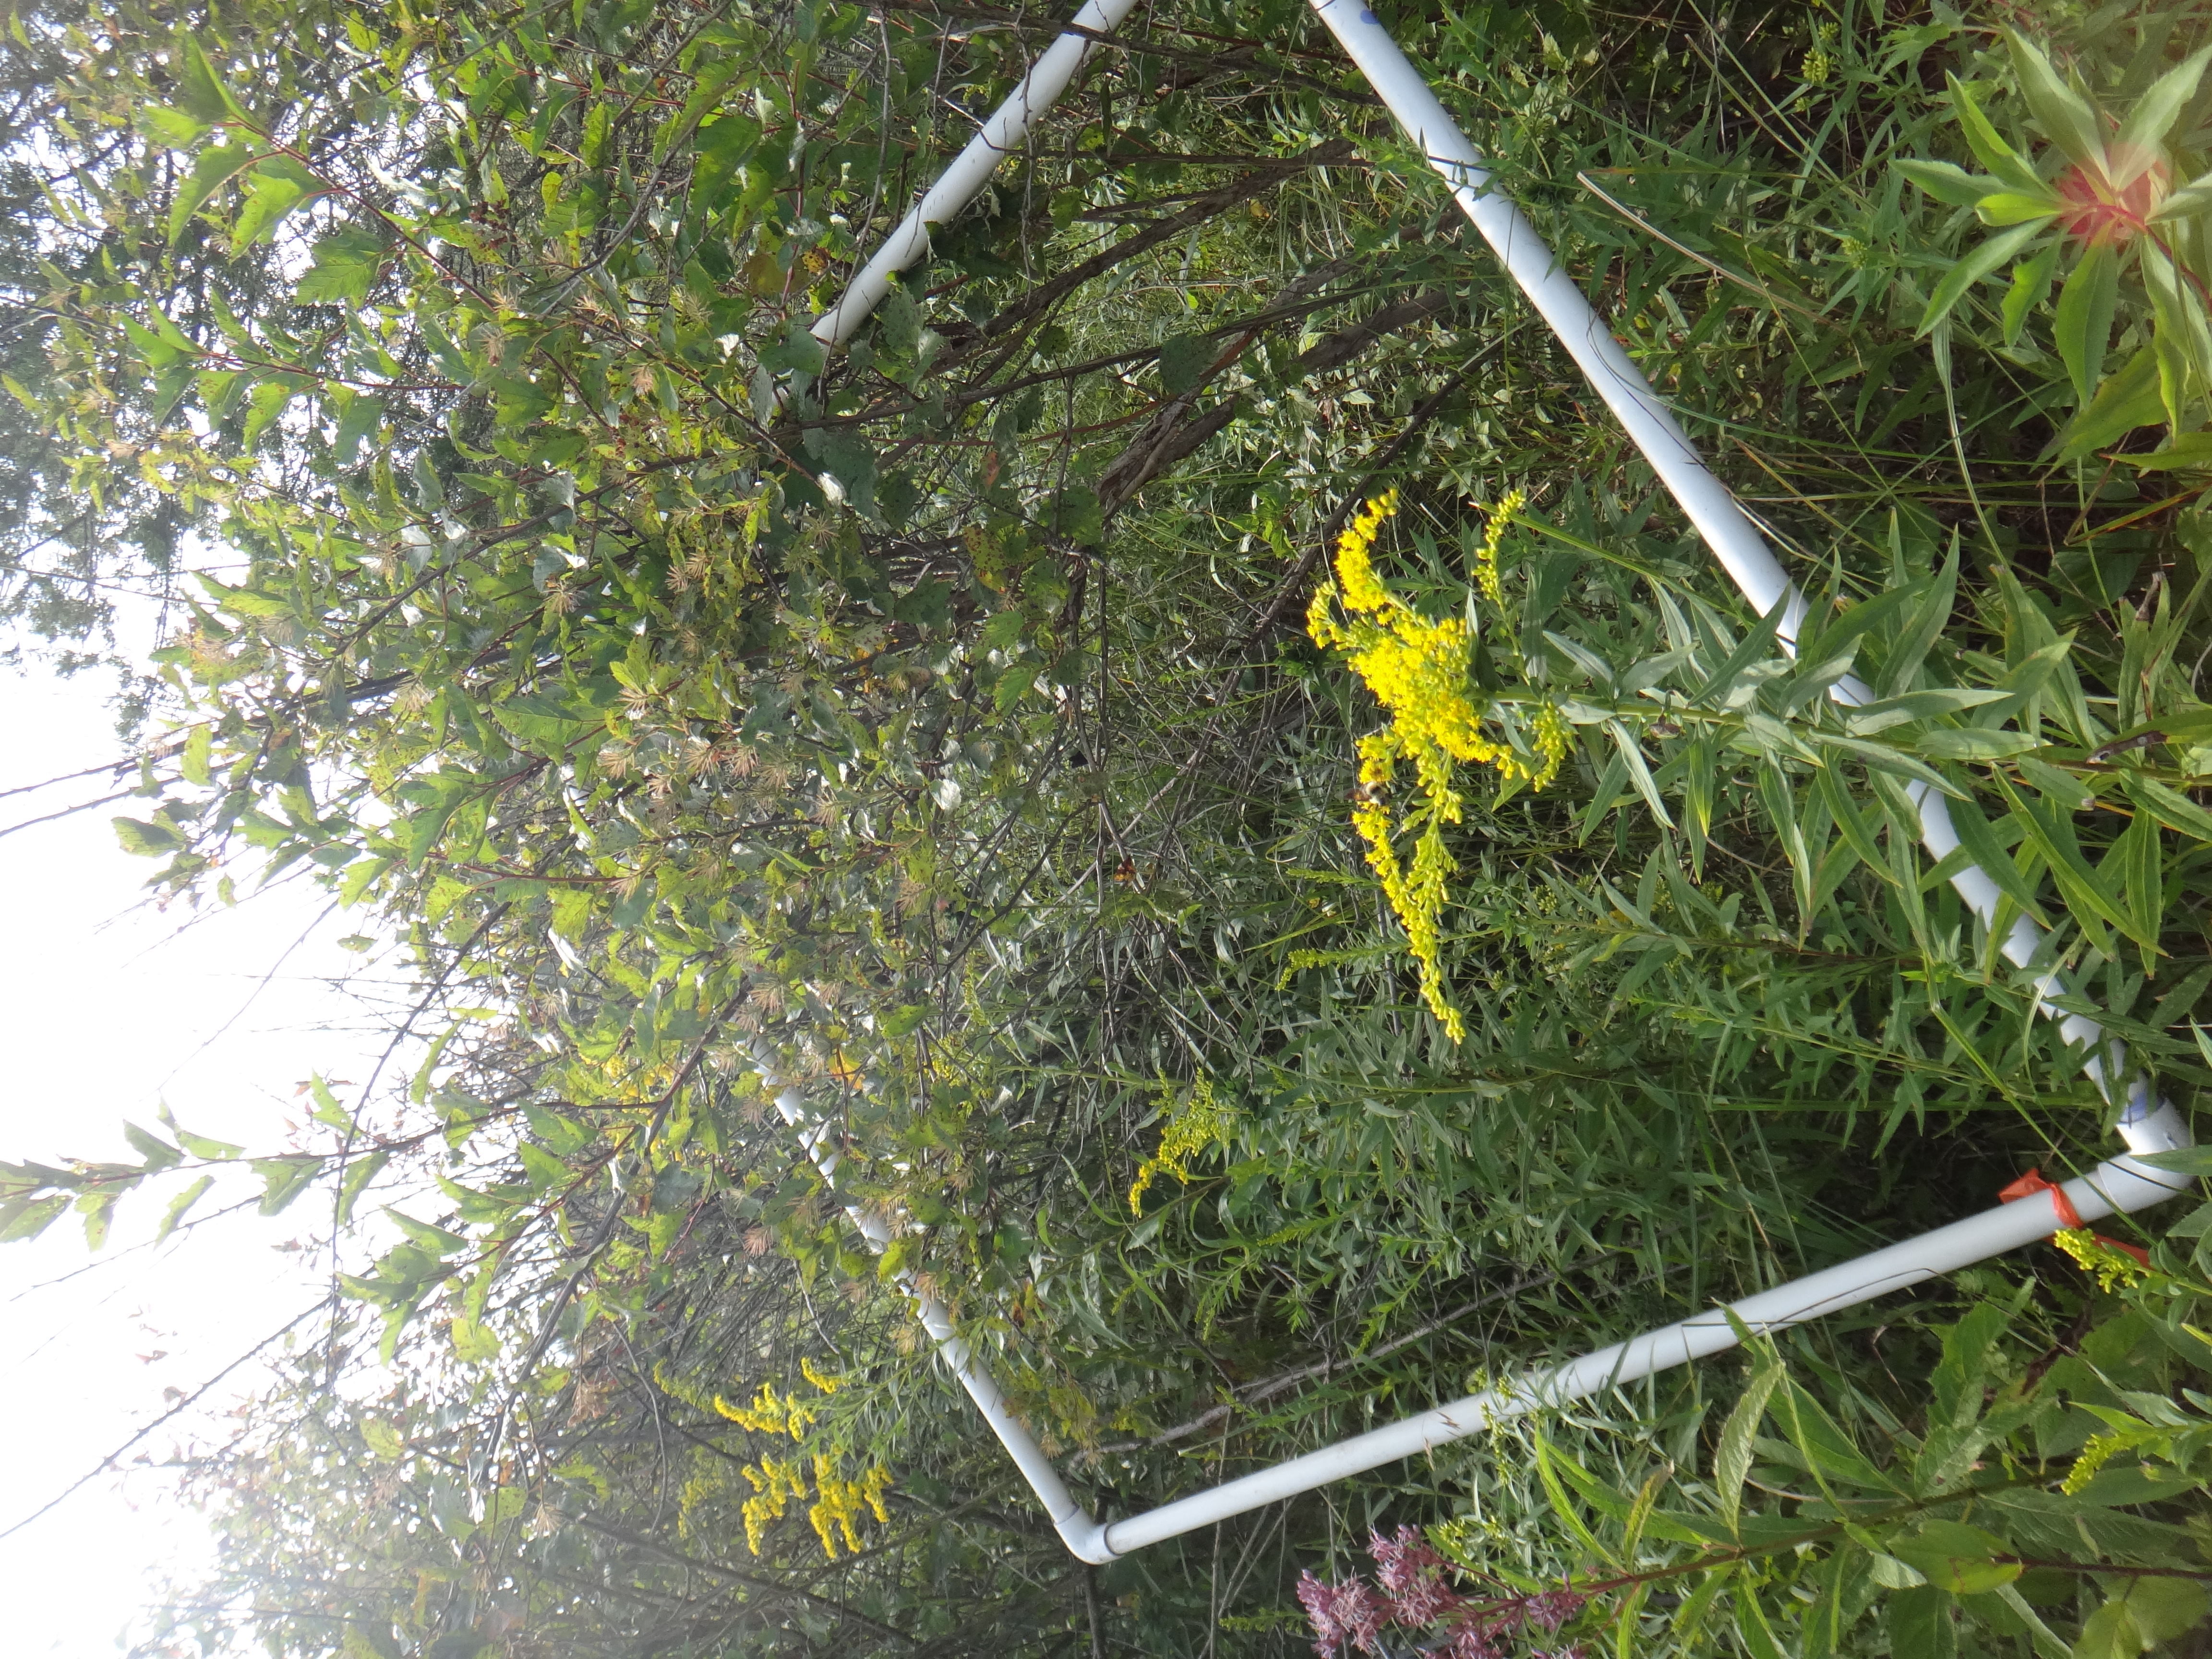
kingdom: Plantae
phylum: Tracheophyta
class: Magnoliopsida
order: Rosales
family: Rhamnaceae
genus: Frangula
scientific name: Frangula alnus
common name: Alder buckthorn
